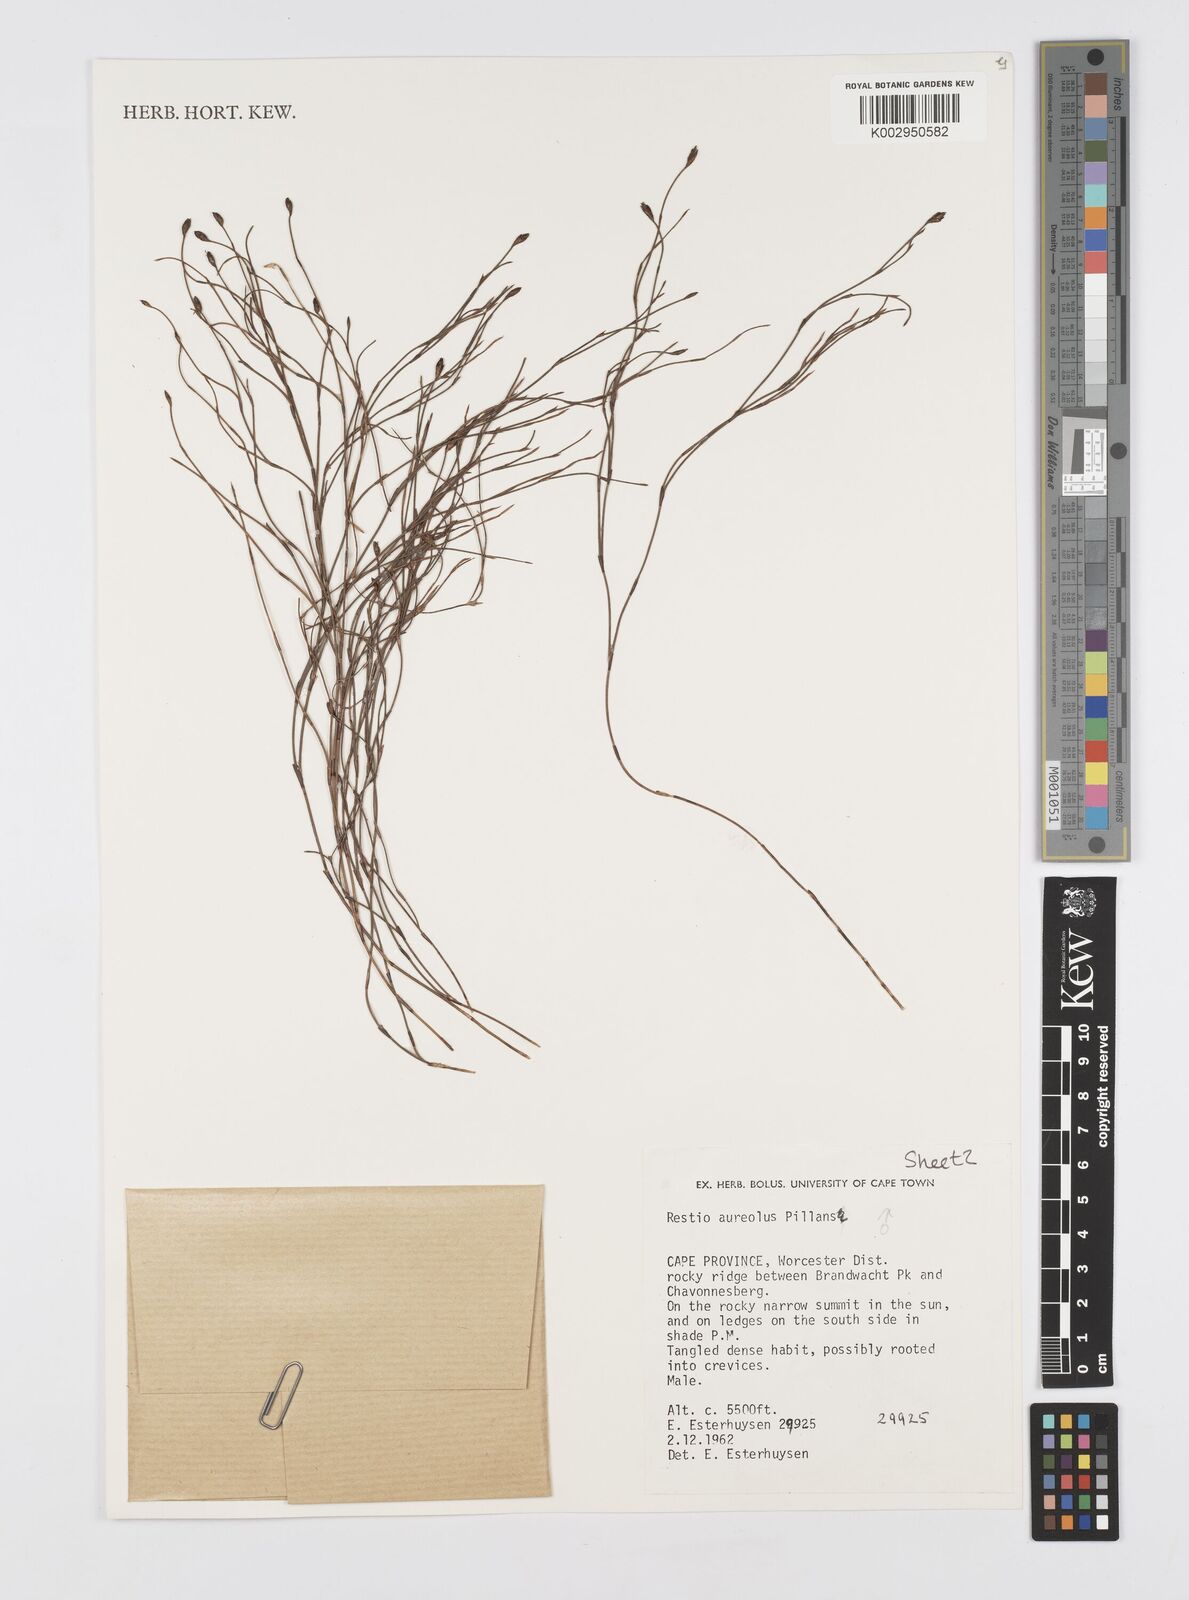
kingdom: Plantae
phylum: Tracheophyta
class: Liliopsida
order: Poales
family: Restionaceae
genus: Restio
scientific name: Restio aureolus
